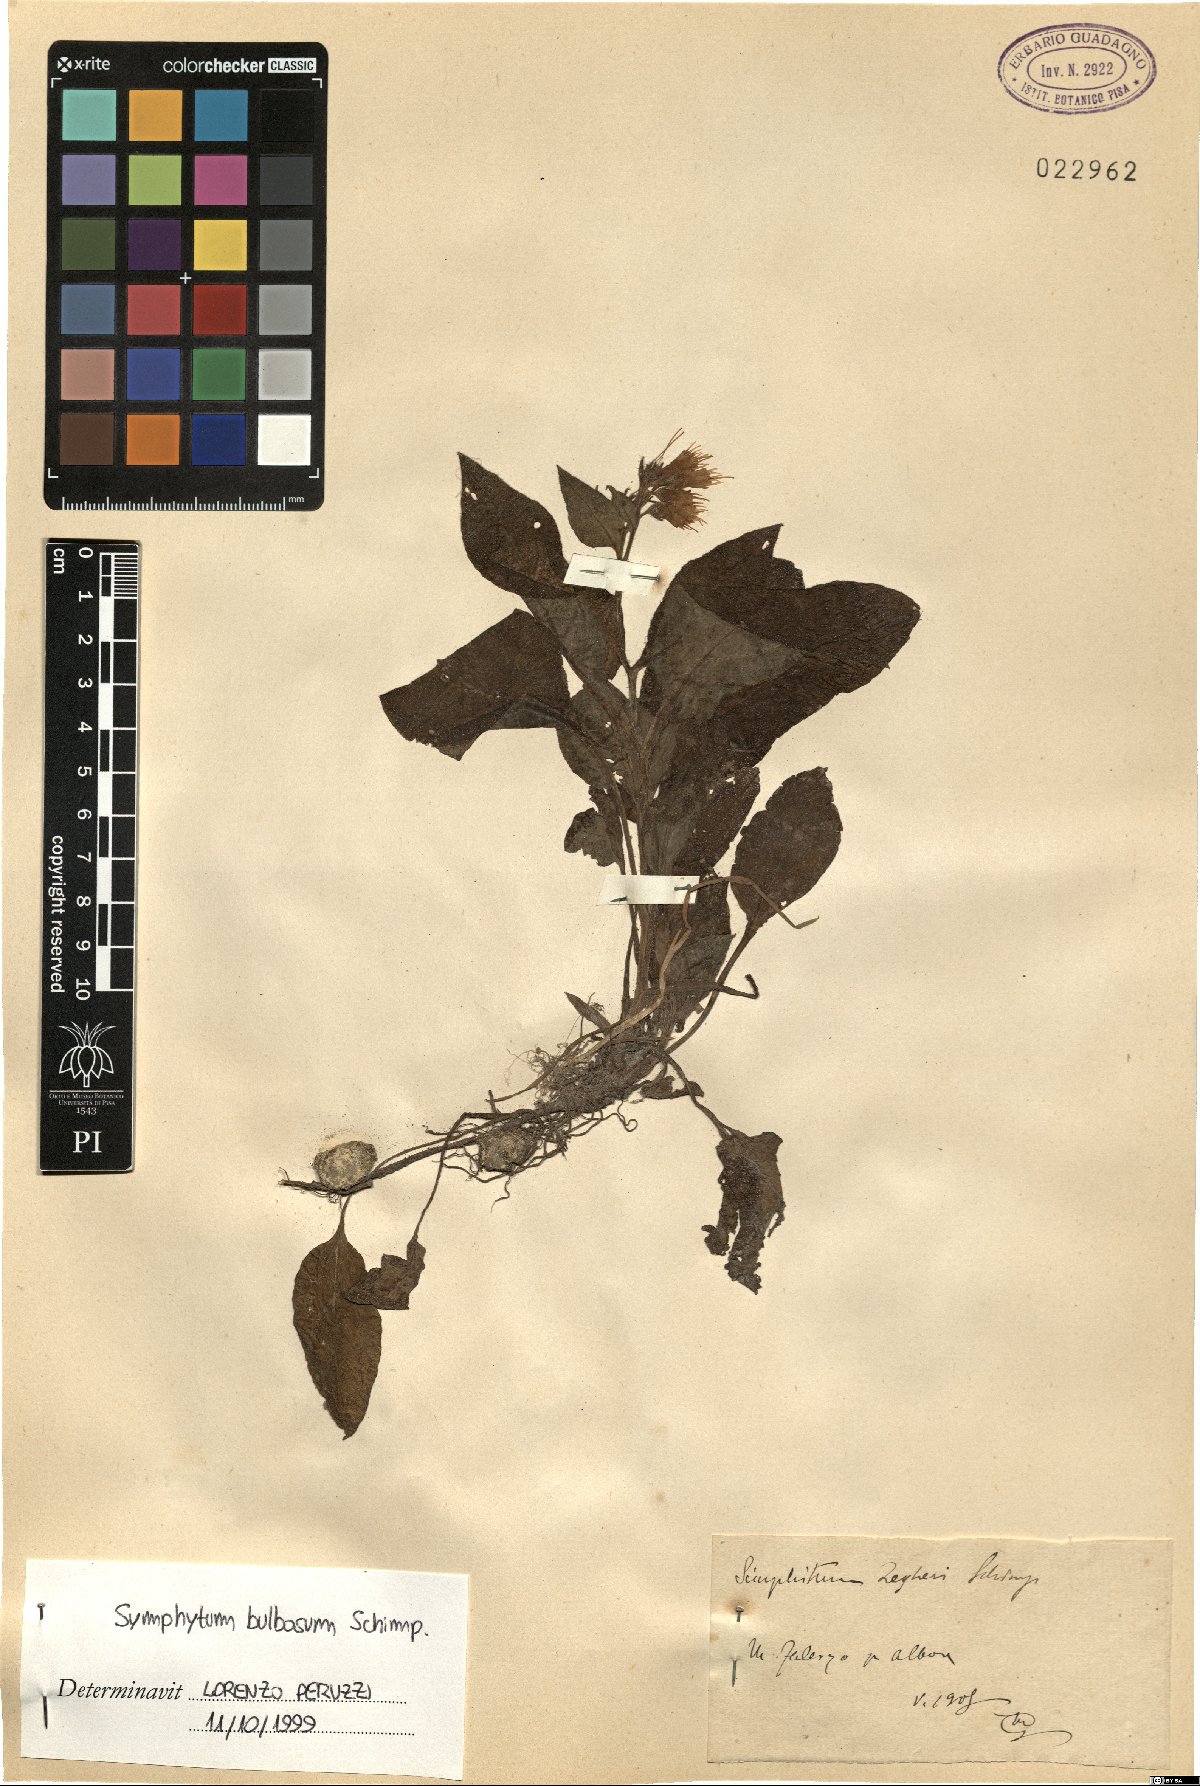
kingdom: Plantae
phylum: Tracheophyta
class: Magnoliopsida
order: Boraginales
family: Boraginaceae
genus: Symphytum
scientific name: Symphytum bulbosum
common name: Bulbous comfrey
